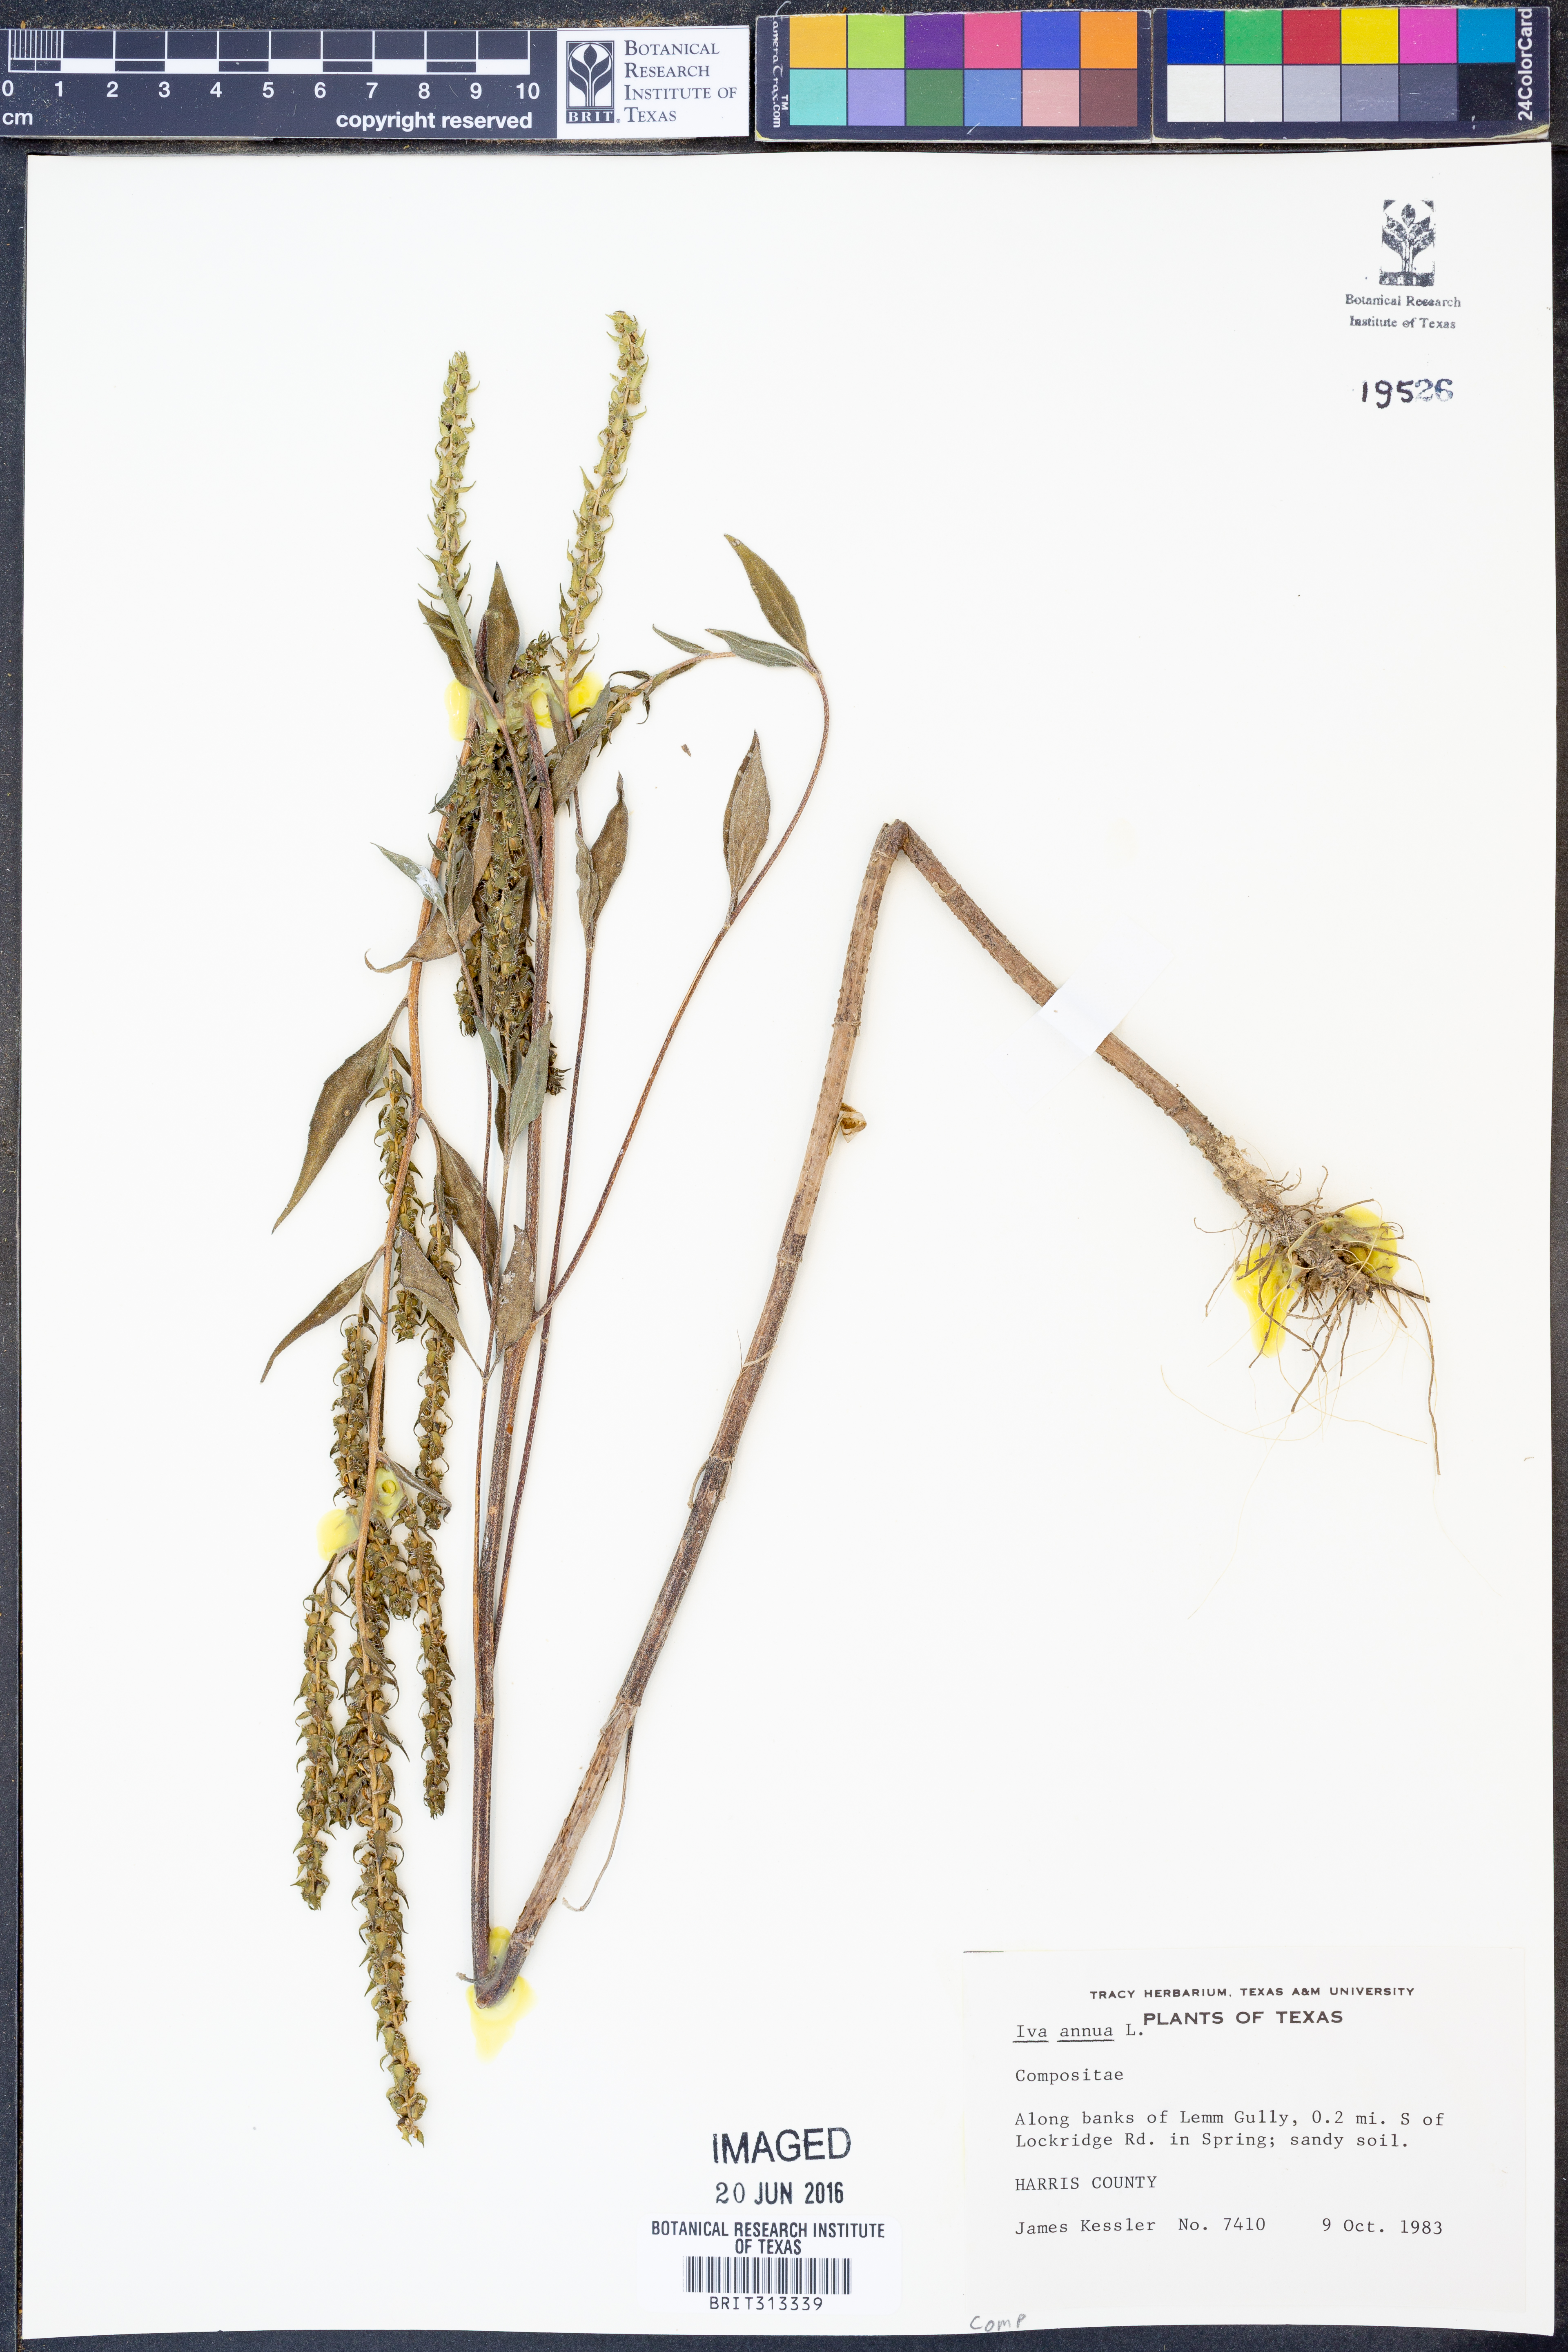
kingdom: Plantae
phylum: Tracheophyta
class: Magnoliopsida
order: Asterales
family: Asteraceae
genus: Iva
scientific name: Iva annua
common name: Marsh-elder
